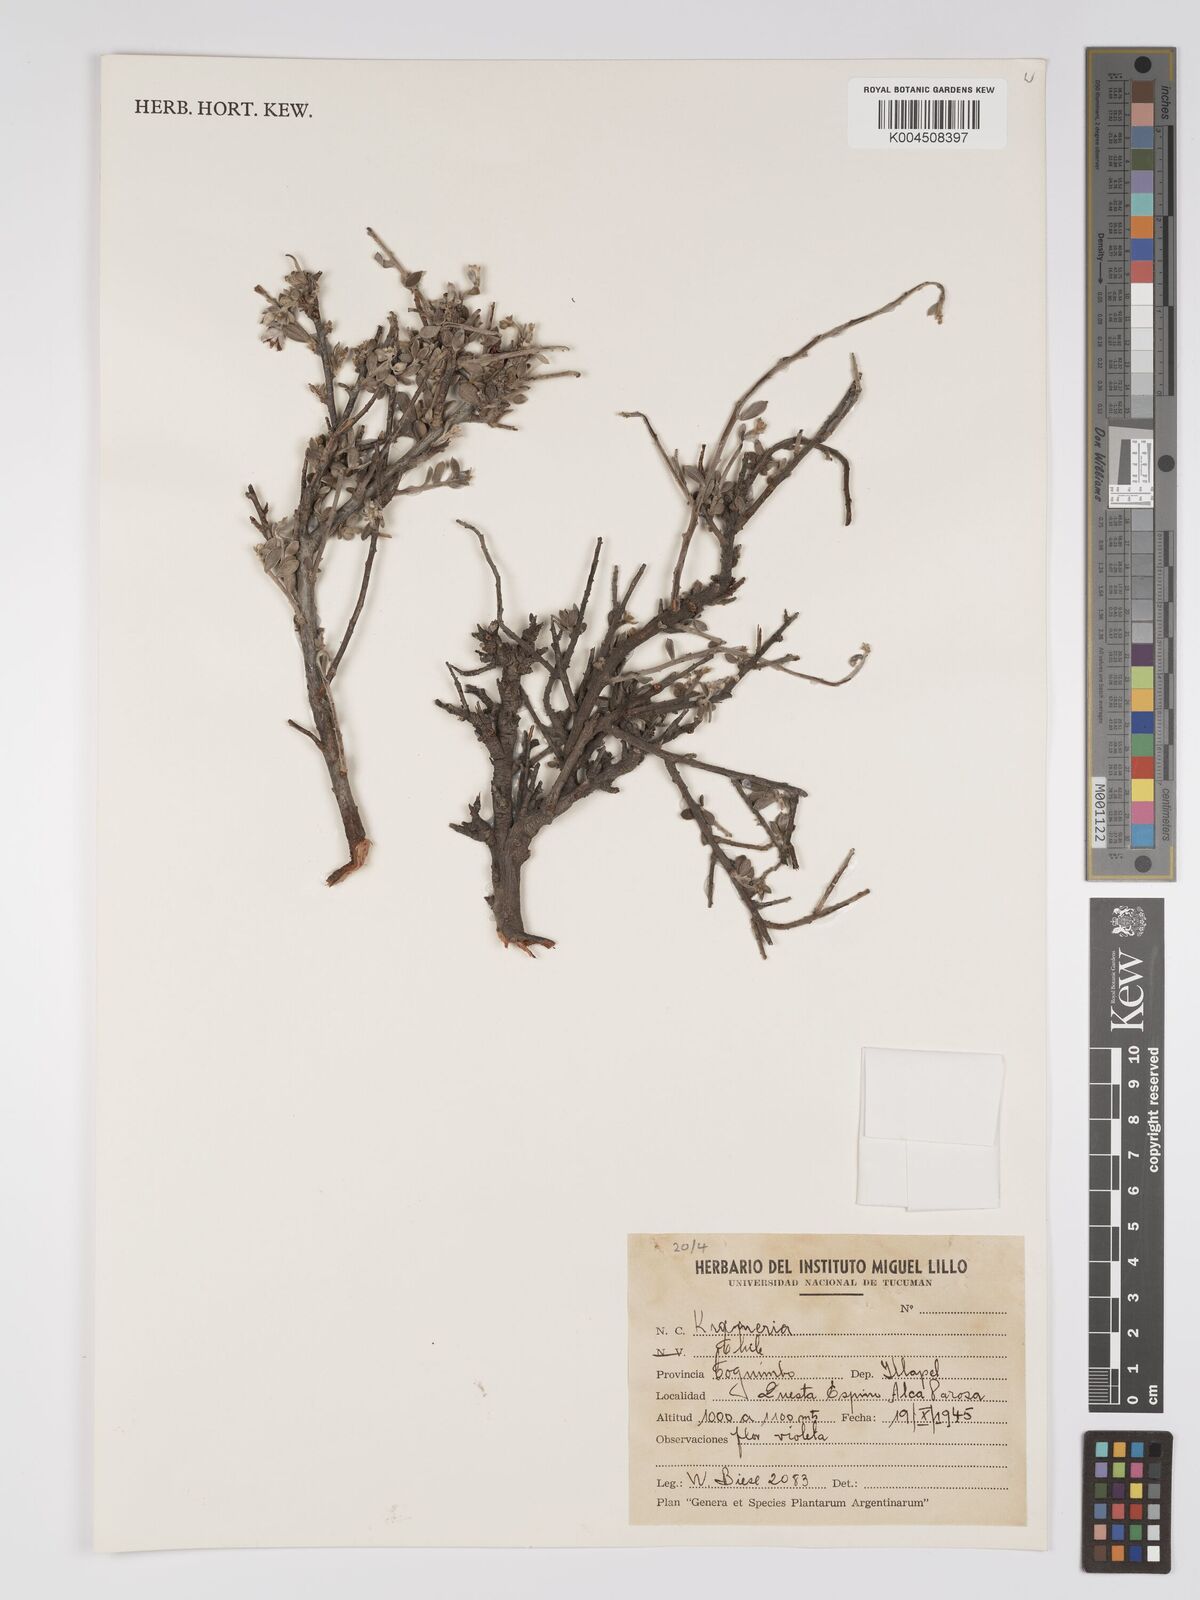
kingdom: Plantae
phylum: Tracheophyta
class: Magnoliopsida
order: Zygophyllales
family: Krameriaceae
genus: Krameria
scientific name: Krameria
